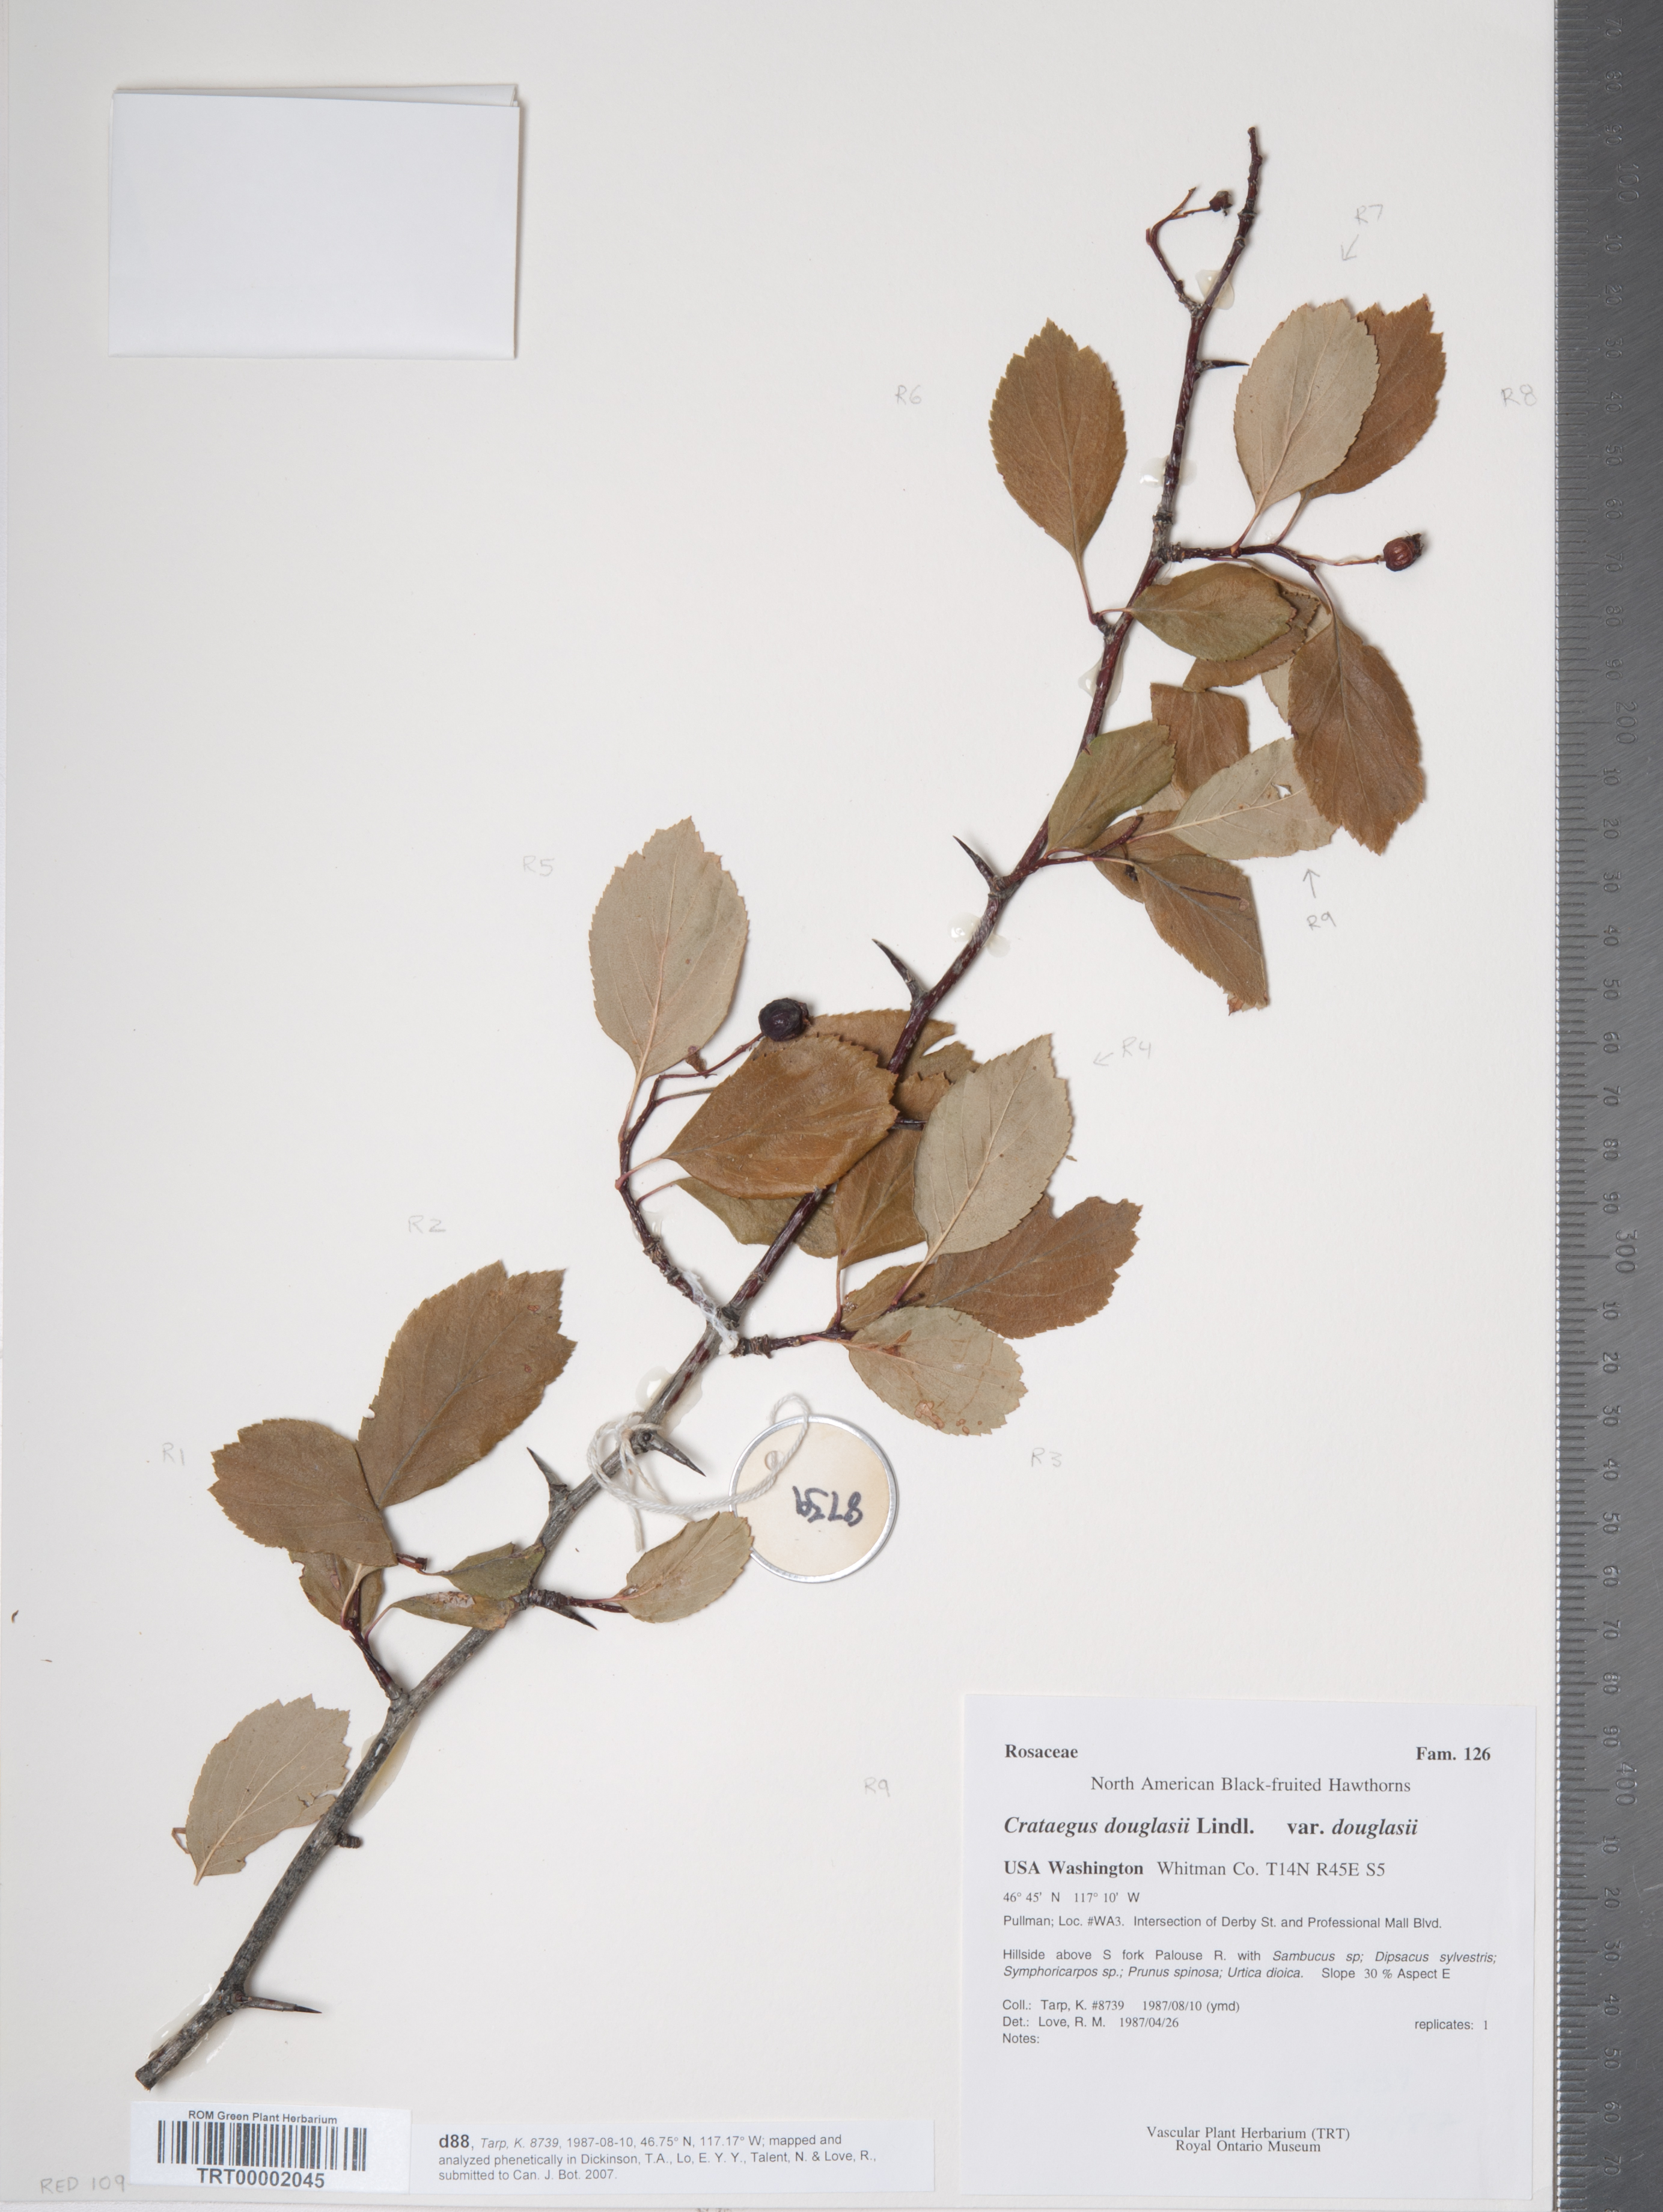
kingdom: Plantae
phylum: Tracheophyta
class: Magnoliopsida
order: Rosales
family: Rosaceae
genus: Crataegus
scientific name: Crataegus douglasii
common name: Black hawthorn
